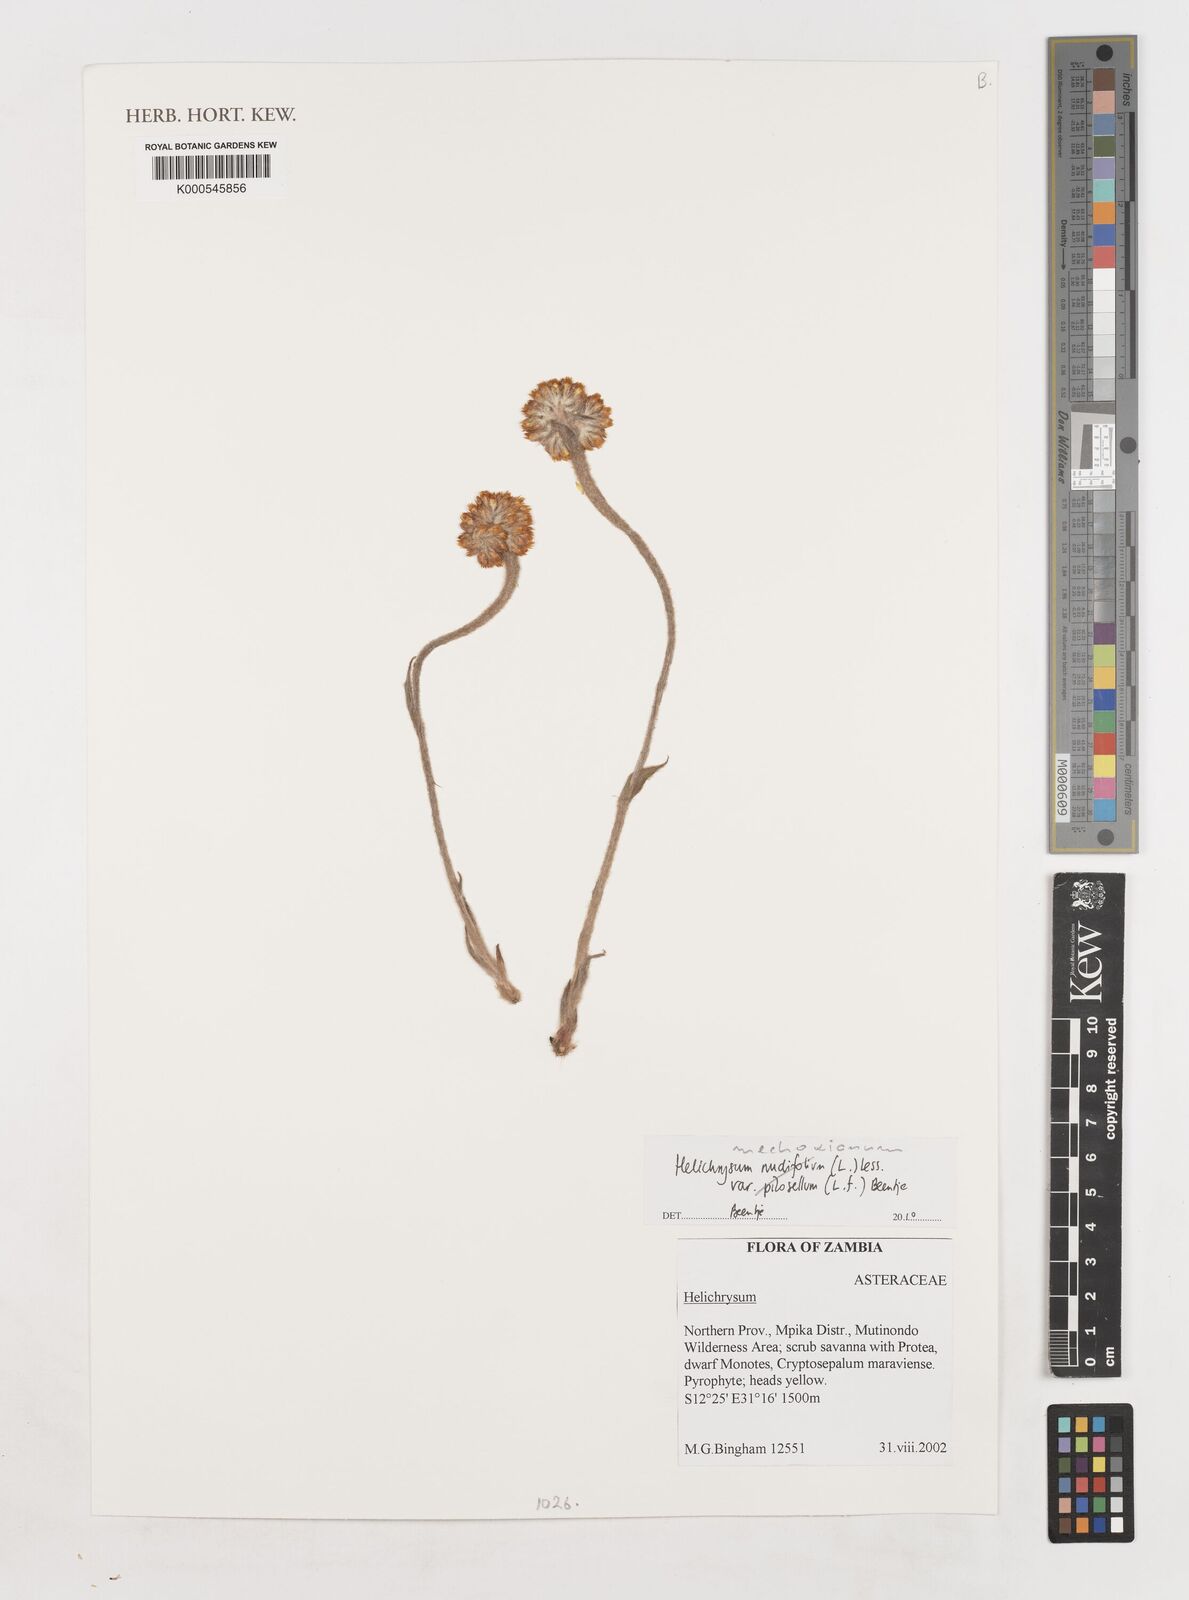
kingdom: Plantae
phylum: Tracheophyta
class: Magnoliopsida
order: Asterales
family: Asteraceae
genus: Helichrysum
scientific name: Helichrysum nudifolium
